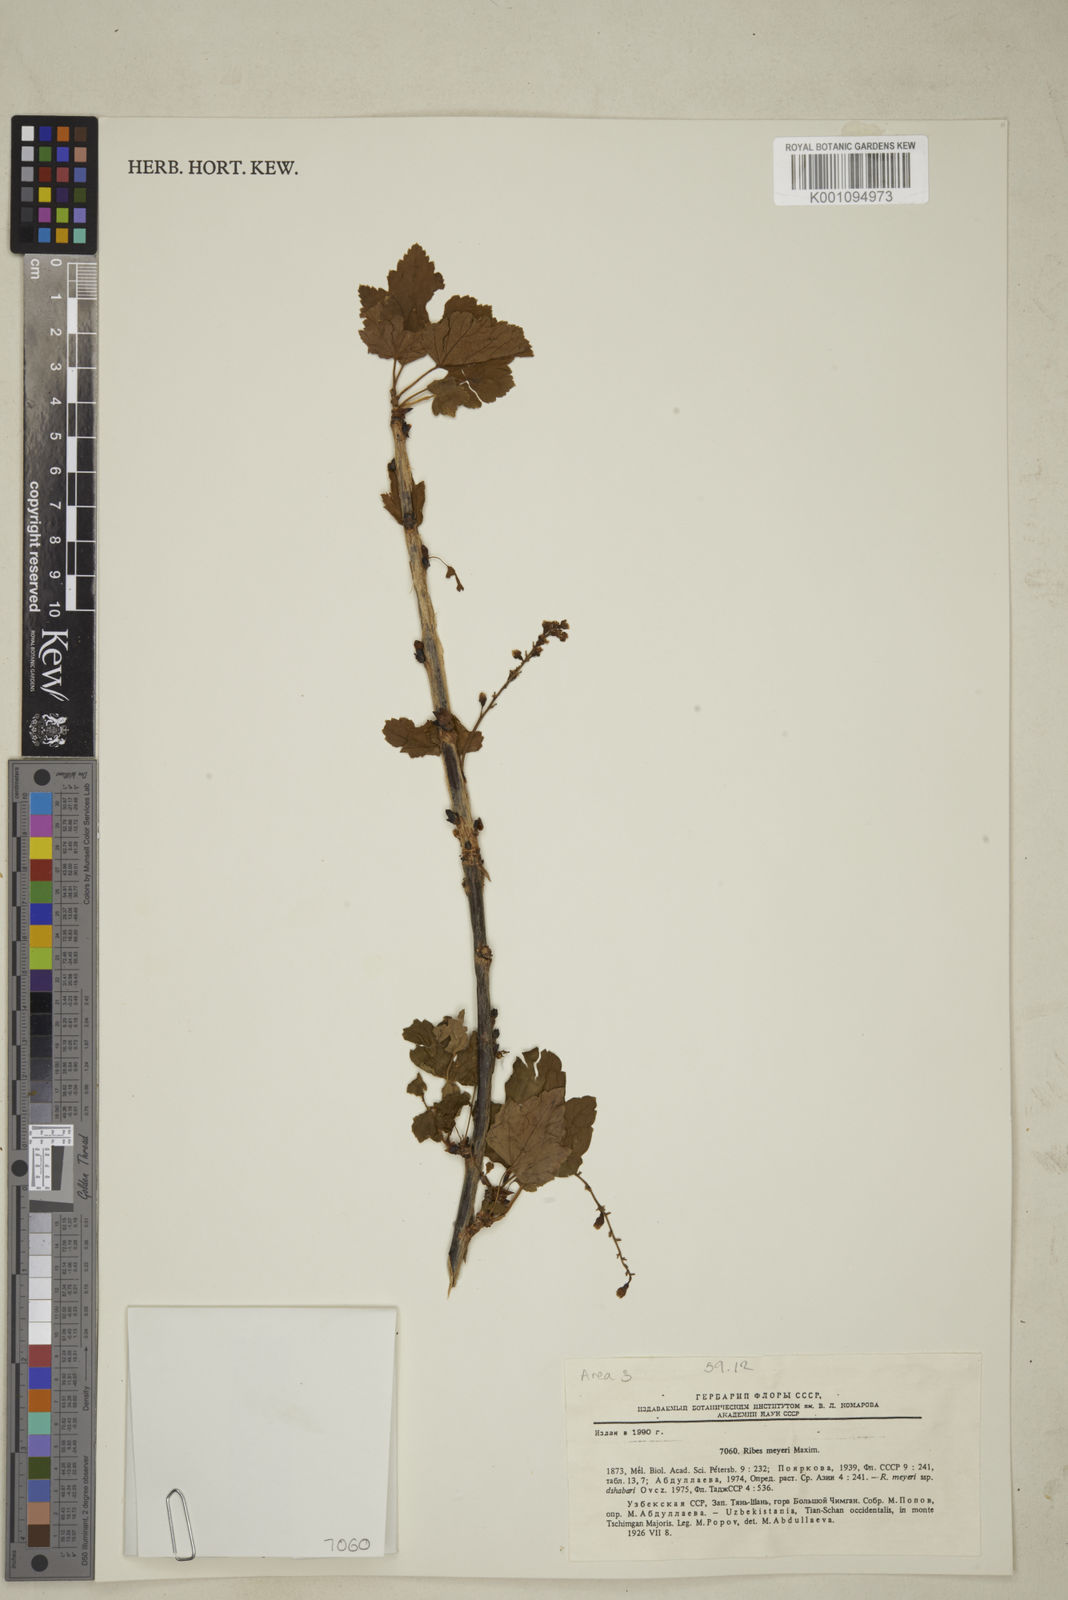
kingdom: Plantae
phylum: Tracheophyta
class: Magnoliopsida
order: Saxifragales
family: Grossulariaceae
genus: Ribes
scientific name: Ribes meyeri
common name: Meyer's currant
